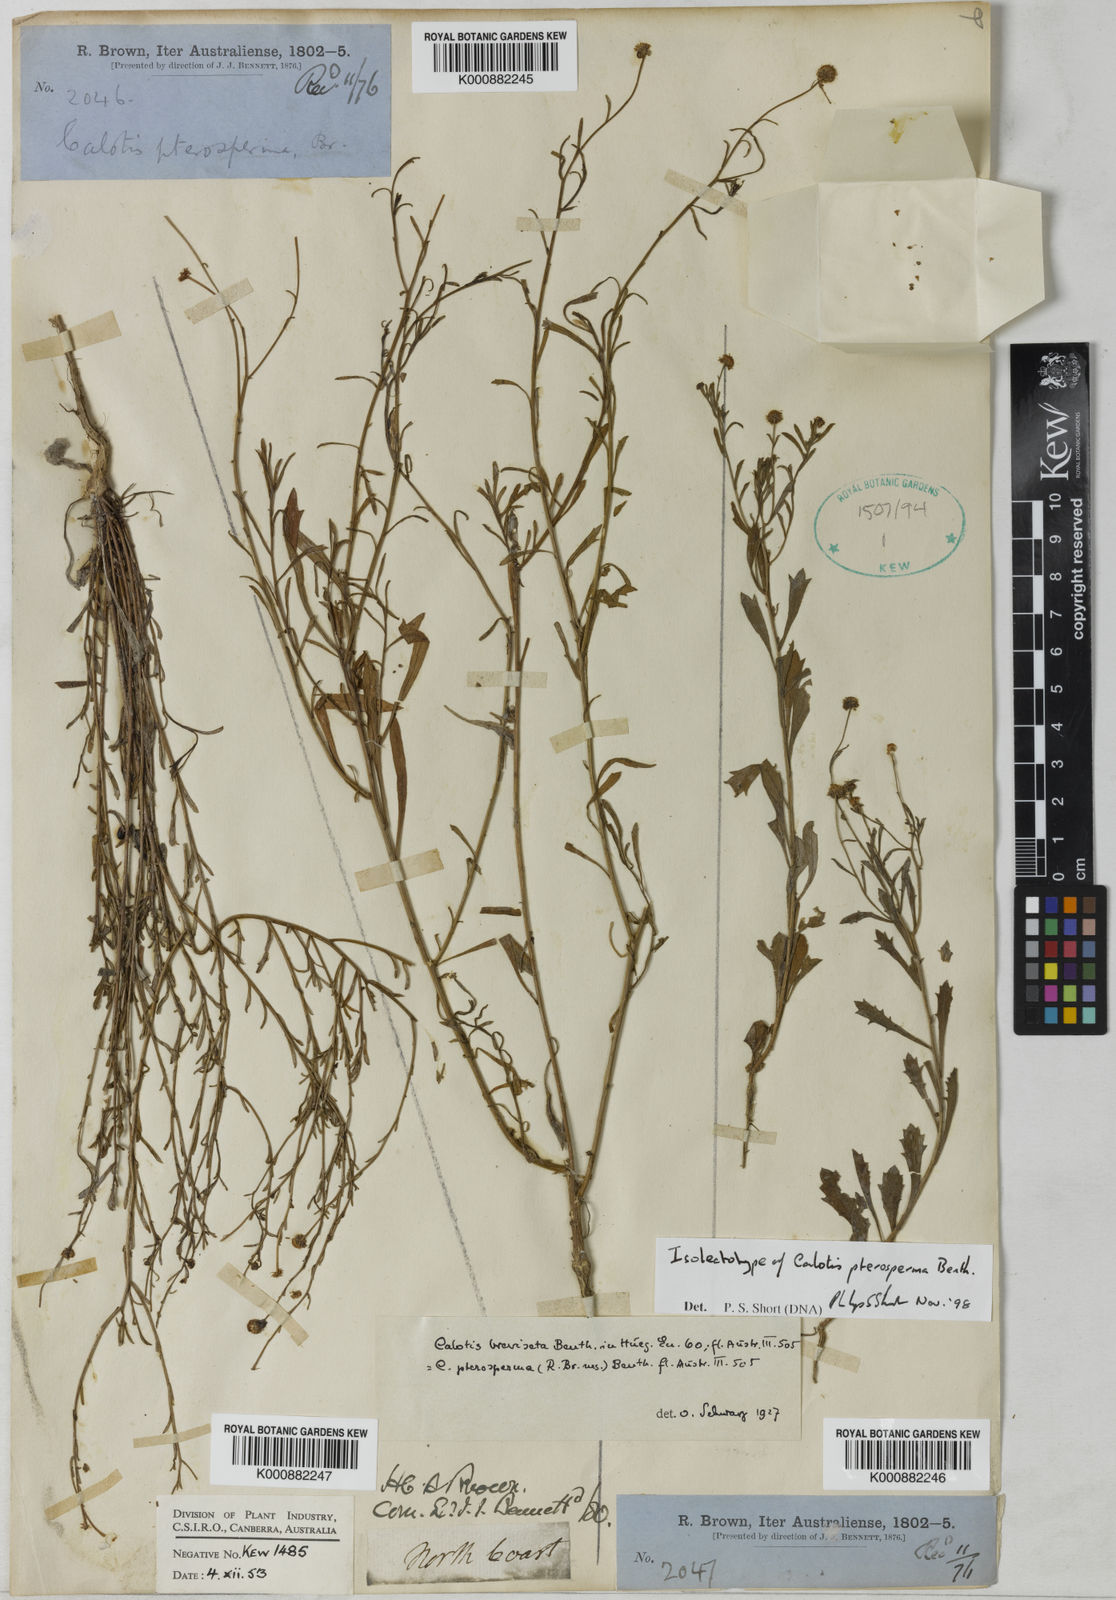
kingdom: Plantae
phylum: Tracheophyta
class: Magnoliopsida
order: Asterales
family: Asteraceae
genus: Calotis
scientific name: Calotis breviseta
